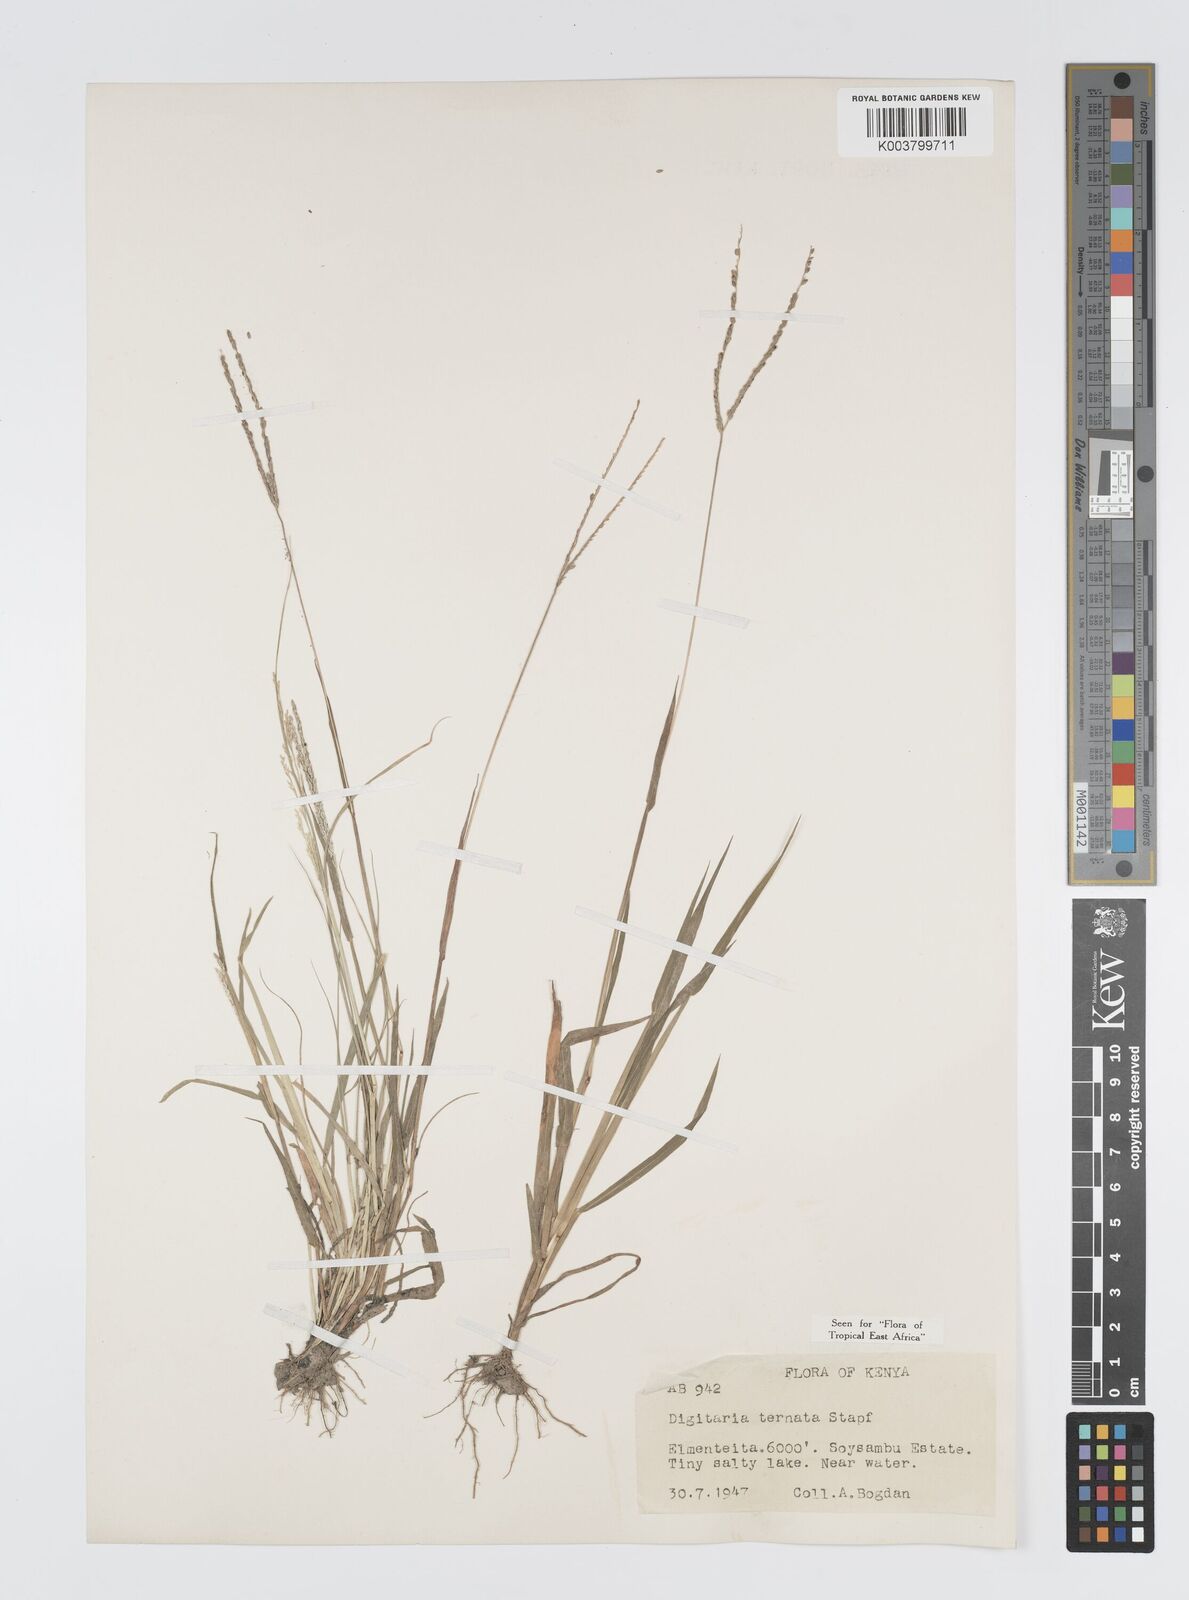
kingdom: Plantae
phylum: Tracheophyta
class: Liliopsida
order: Poales
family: Poaceae
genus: Digitaria
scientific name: Digitaria ternata
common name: Blackseed crabgrass
